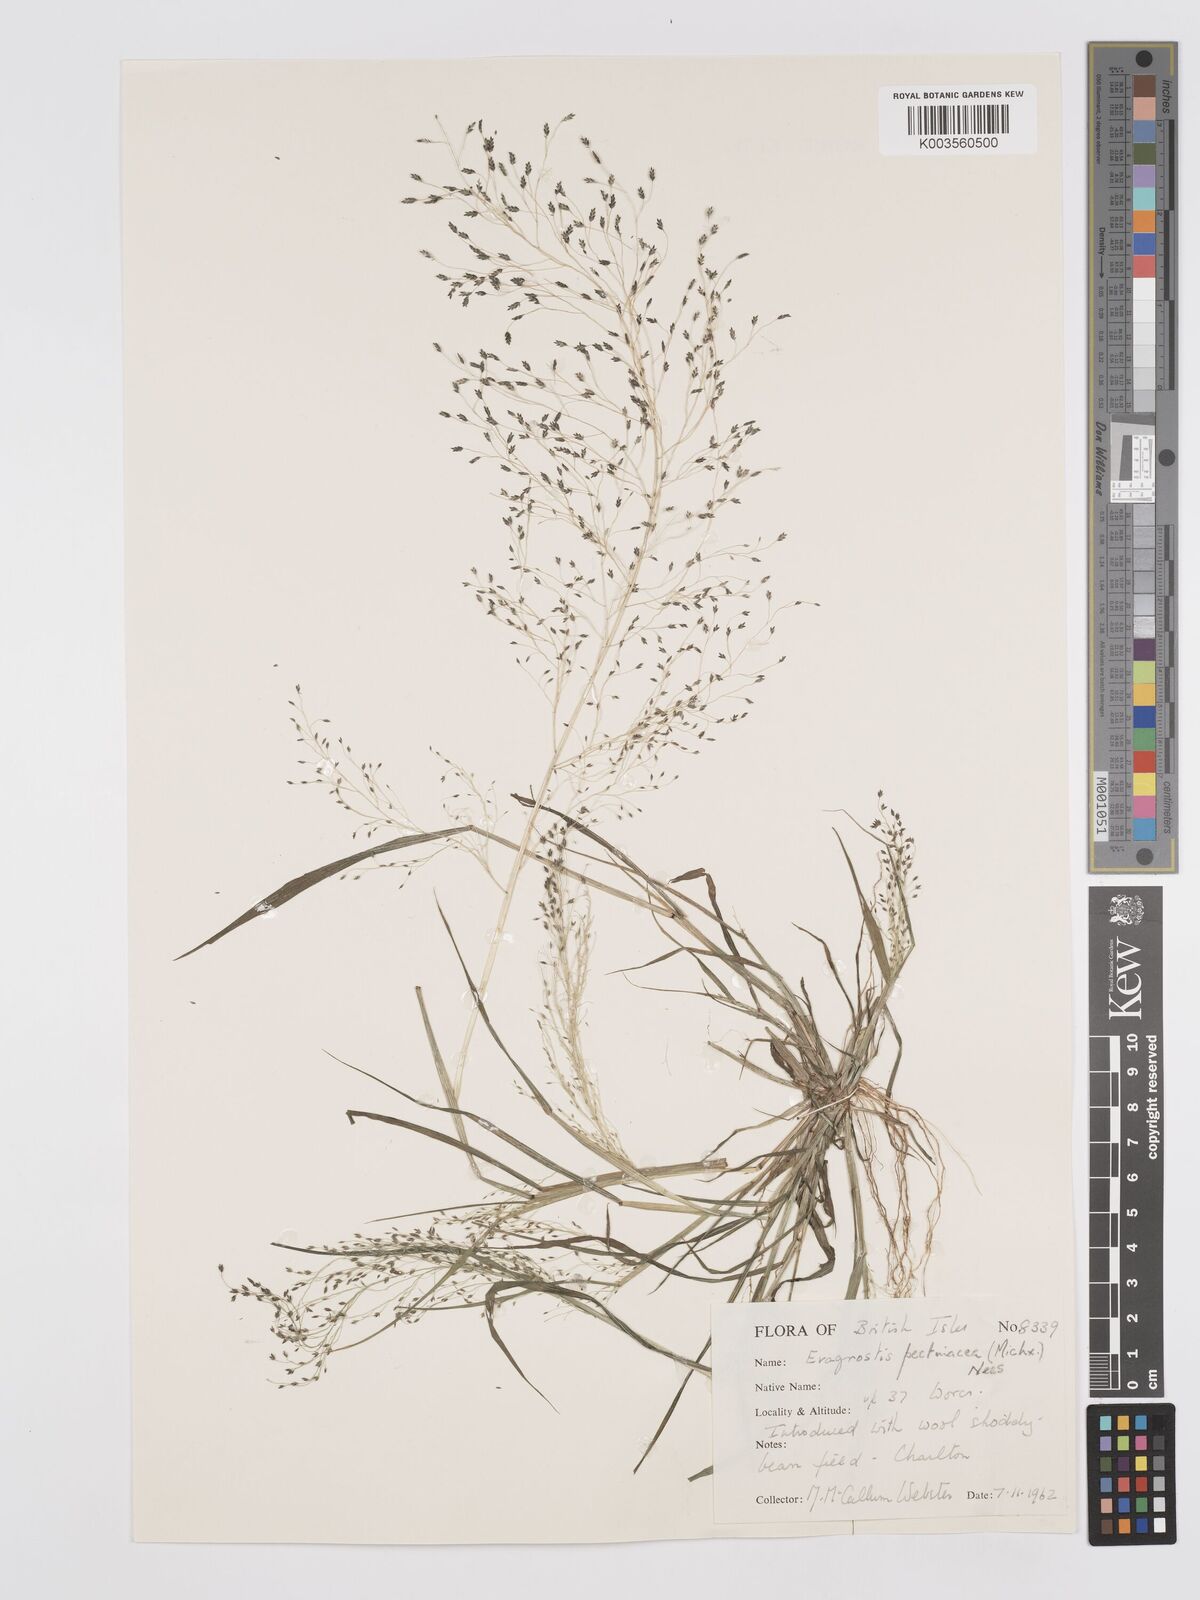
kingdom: Plantae
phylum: Tracheophyta
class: Liliopsida
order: Poales
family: Poaceae
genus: Eragrostis
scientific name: Eragrostis pectinacea
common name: Tufted lovegrass
